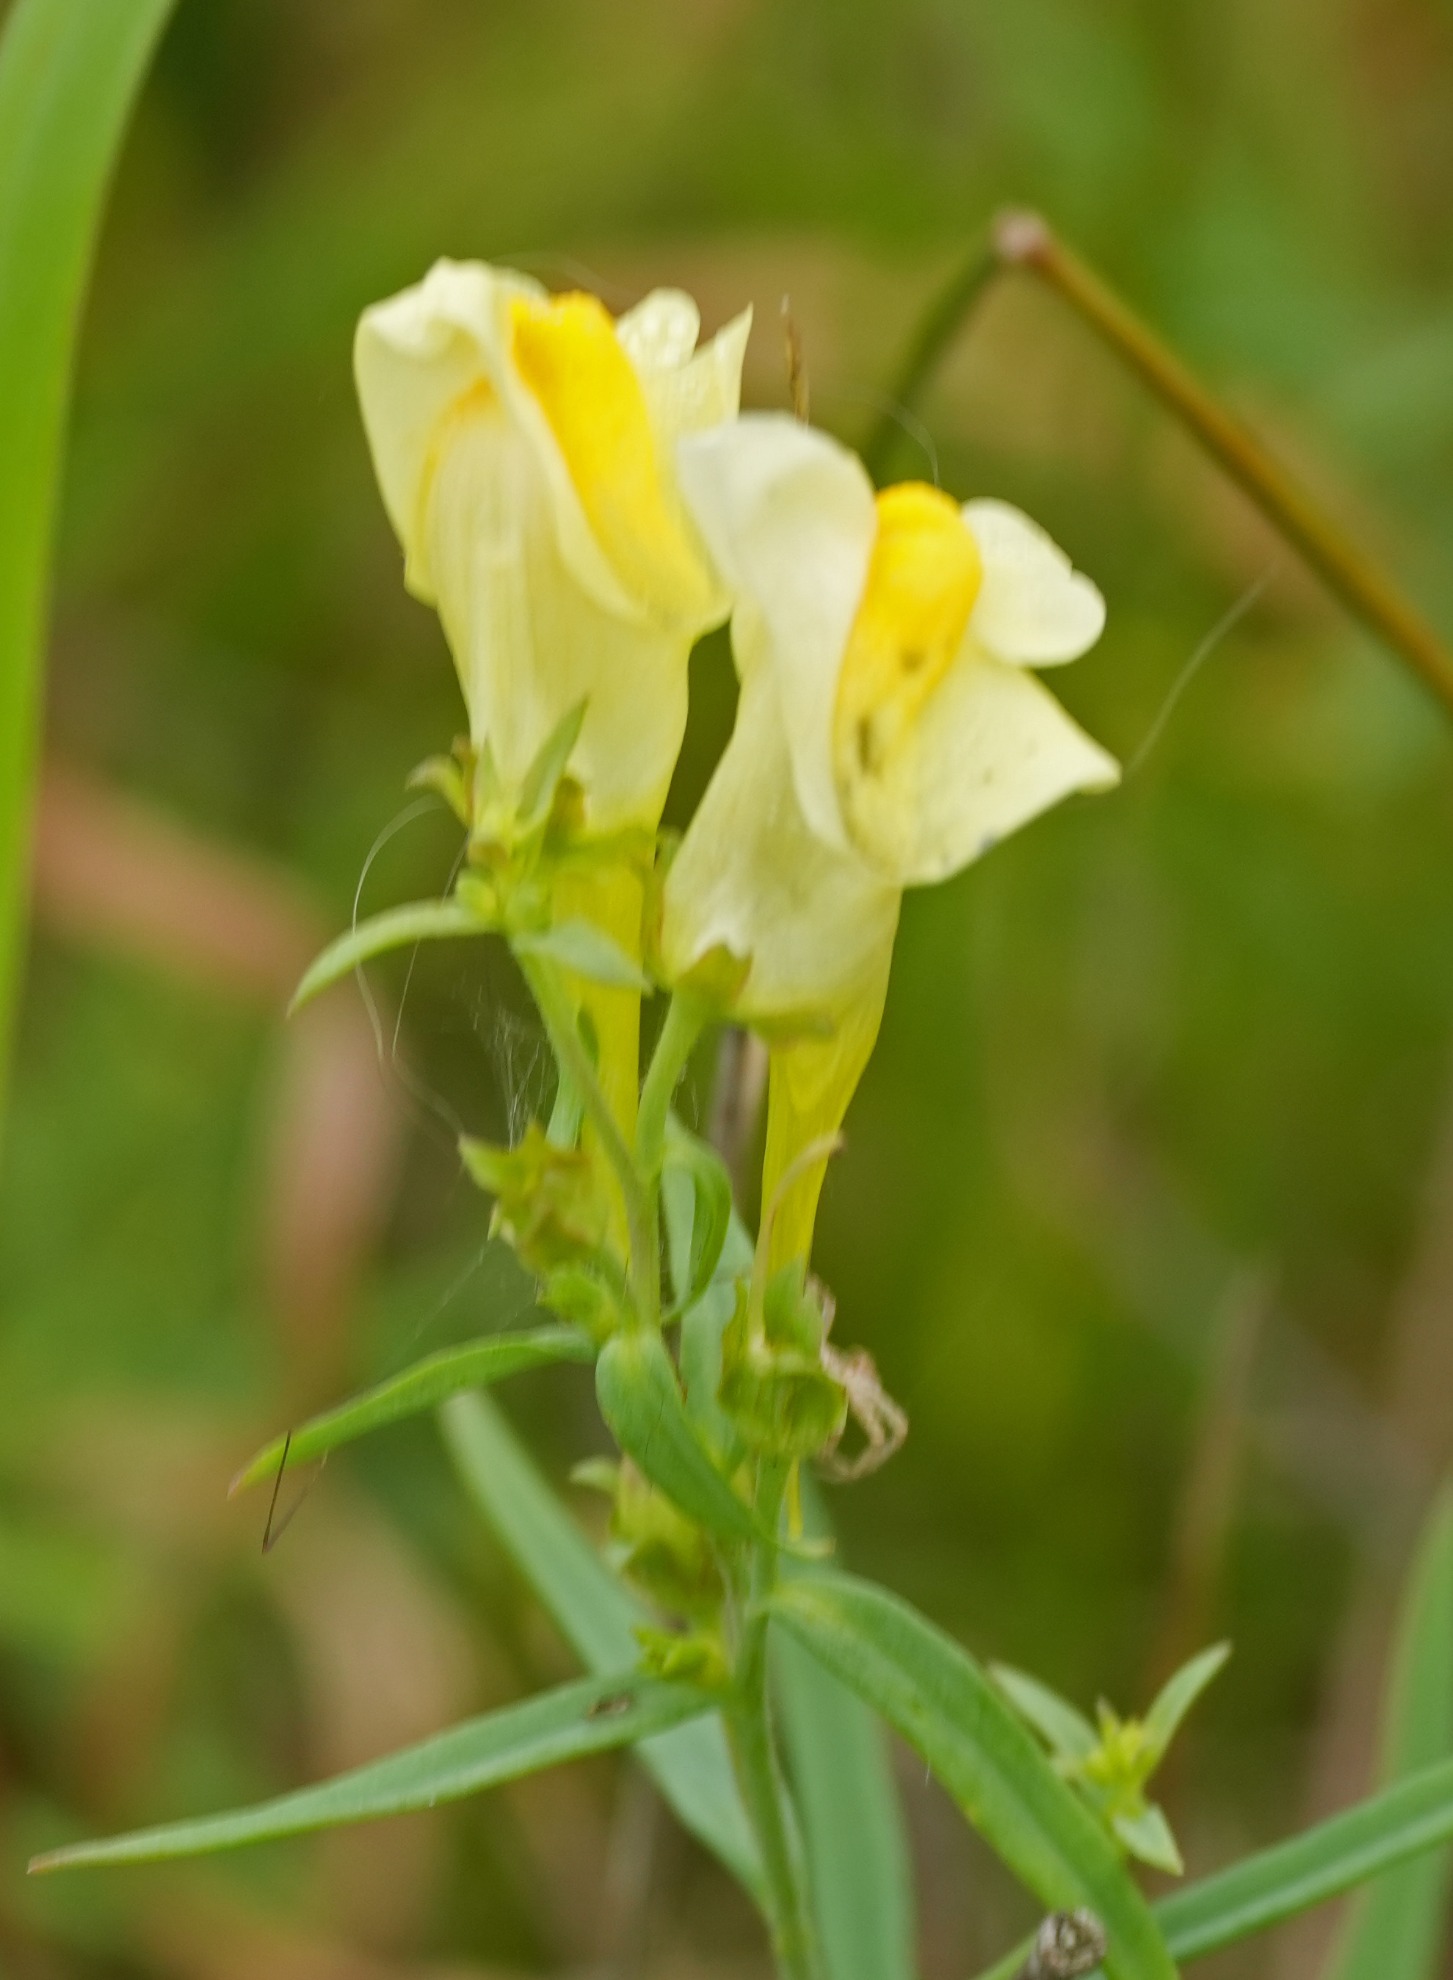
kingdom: Plantae
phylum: Tracheophyta
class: Magnoliopsida
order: Lamiales
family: Plantaginaceae
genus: Linaria
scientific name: Linaria vulgaris
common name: Almindelig torskemund
